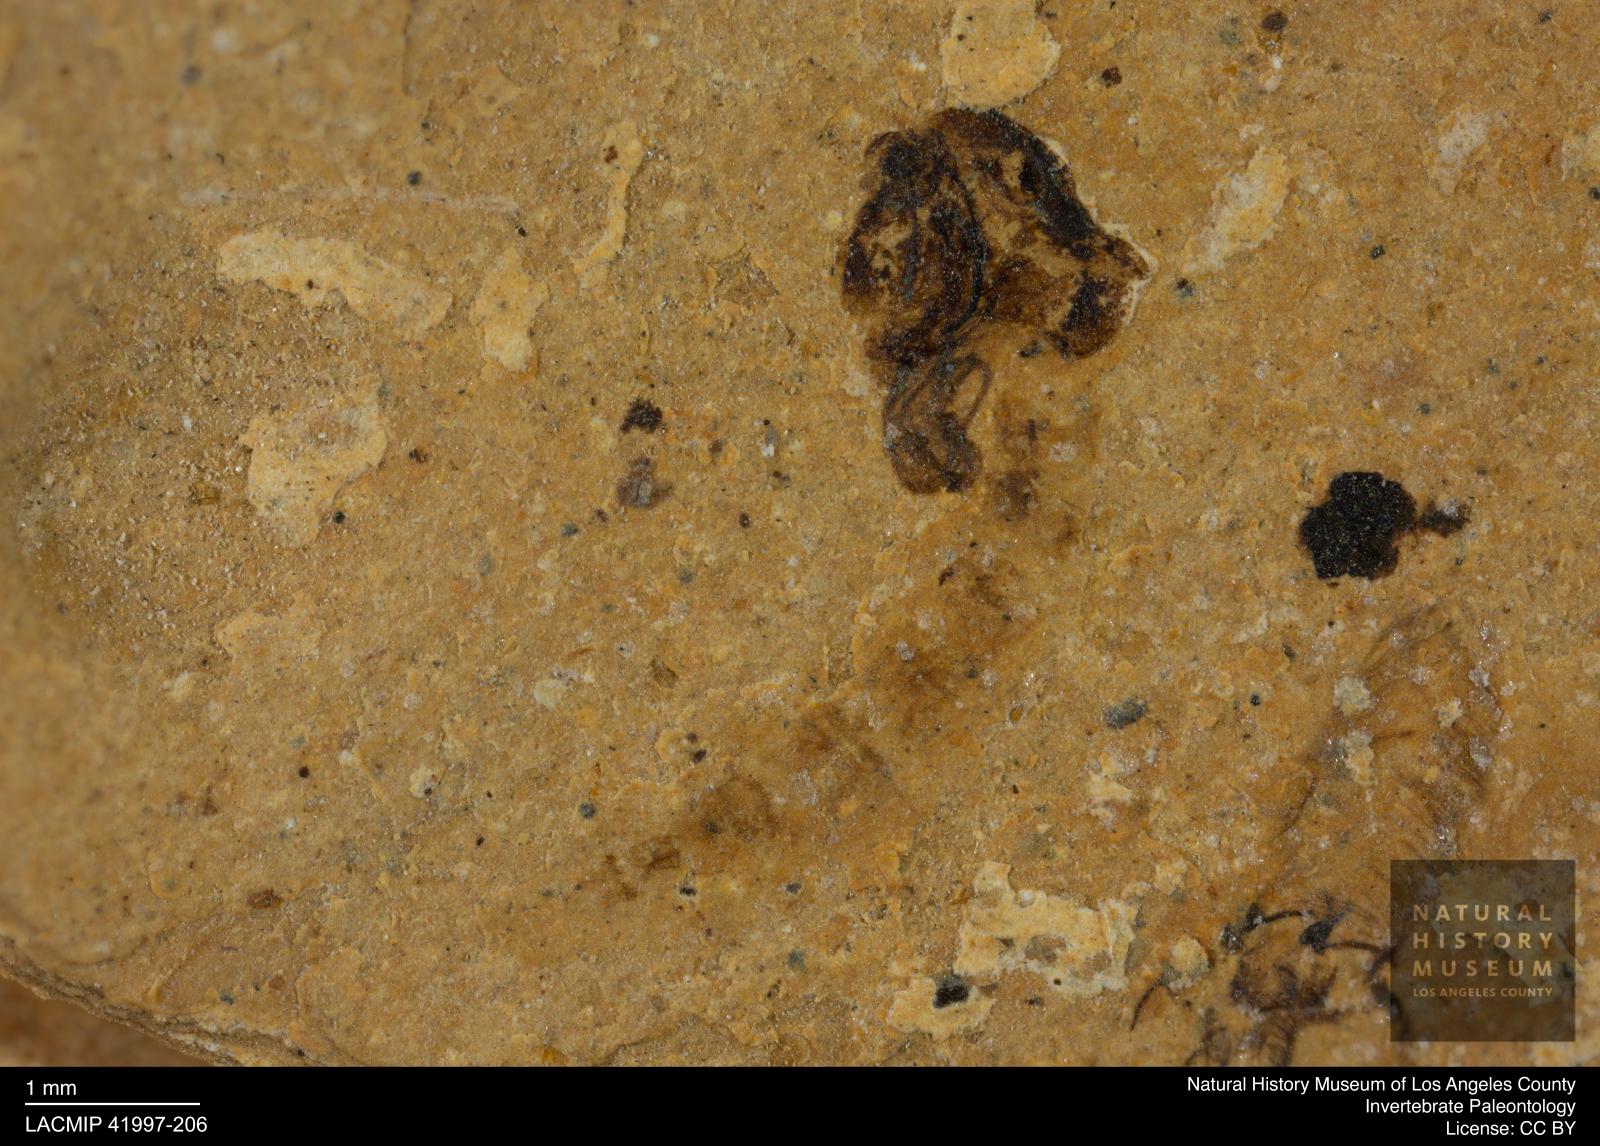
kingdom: Animalia
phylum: Arthropoda
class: Insecta
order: Diptera
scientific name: Diptera
